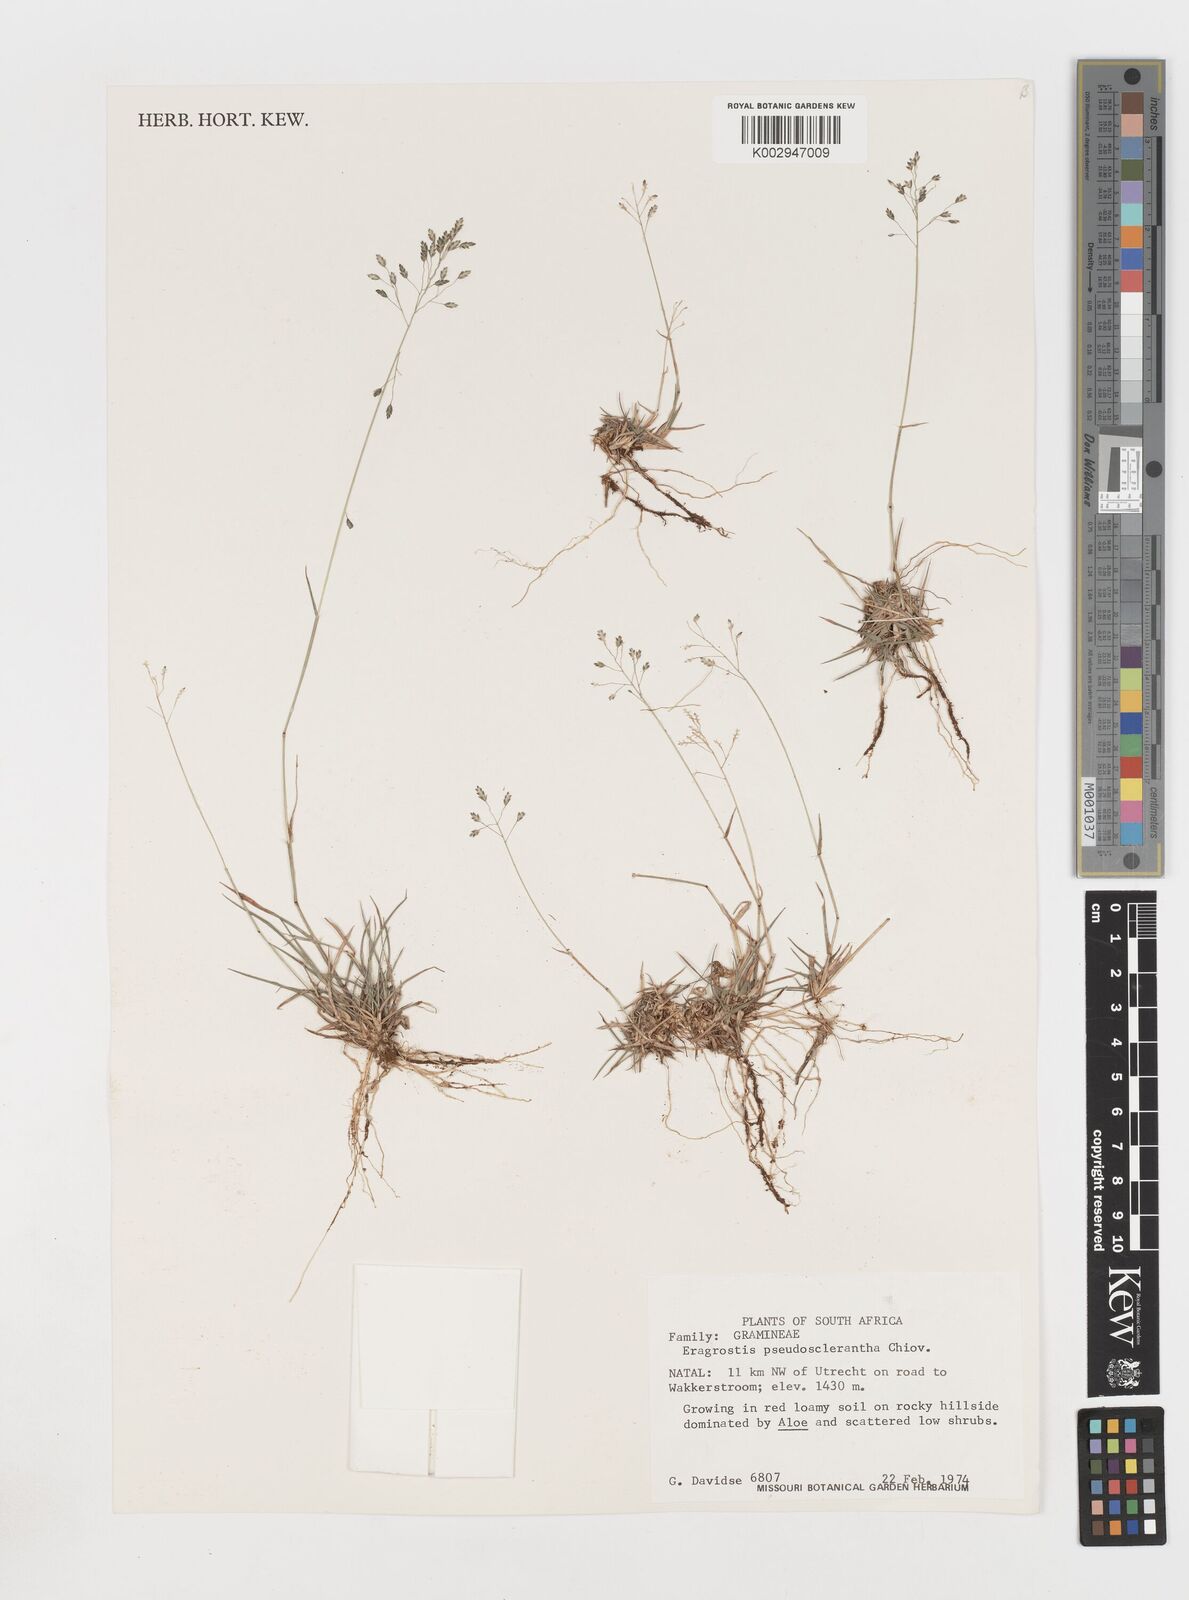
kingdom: Plantae
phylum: Tracheophyta
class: Liliopsida
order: Poales
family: Poaceae
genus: Eragrostis
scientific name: Eragrostis patentipilosa
